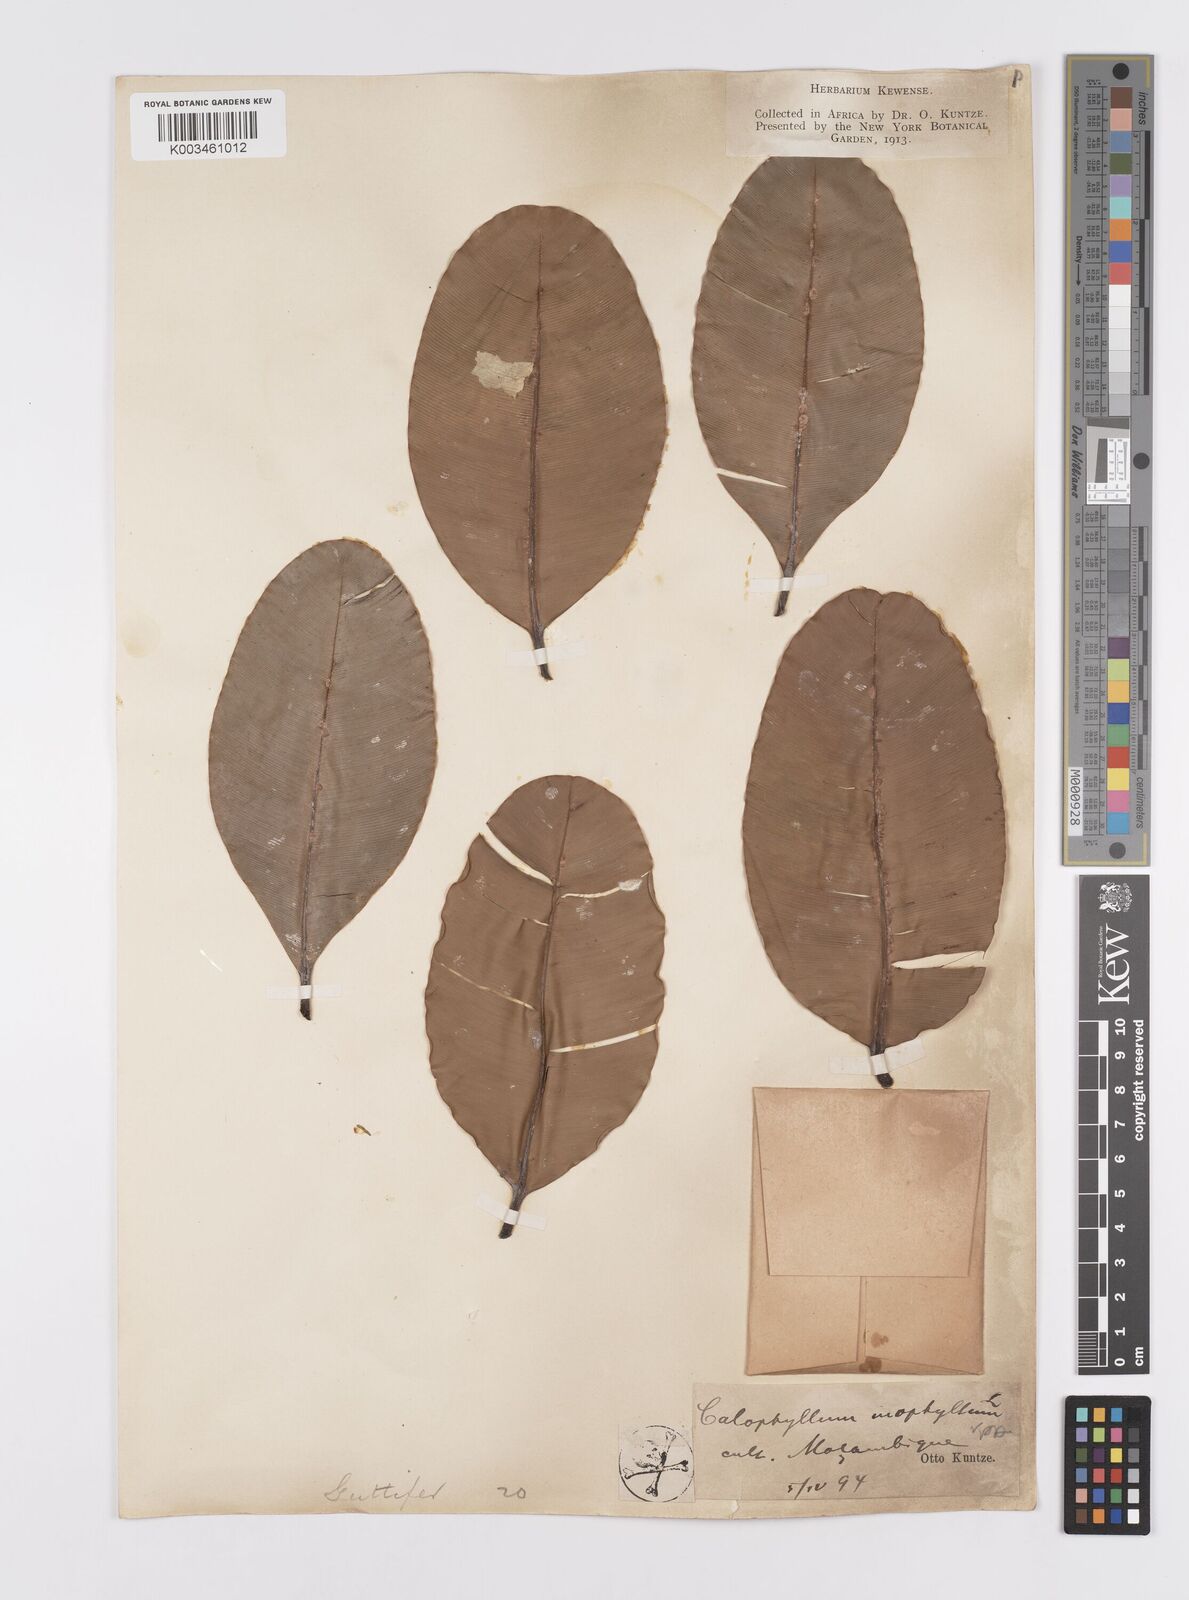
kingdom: Plantae
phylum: Tracheophyta
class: Magnoliopsida
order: Malpighiales
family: Calophyllaceae
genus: Calophyllum
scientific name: Calophyllum inophyllum
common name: Alexandrian laurel
